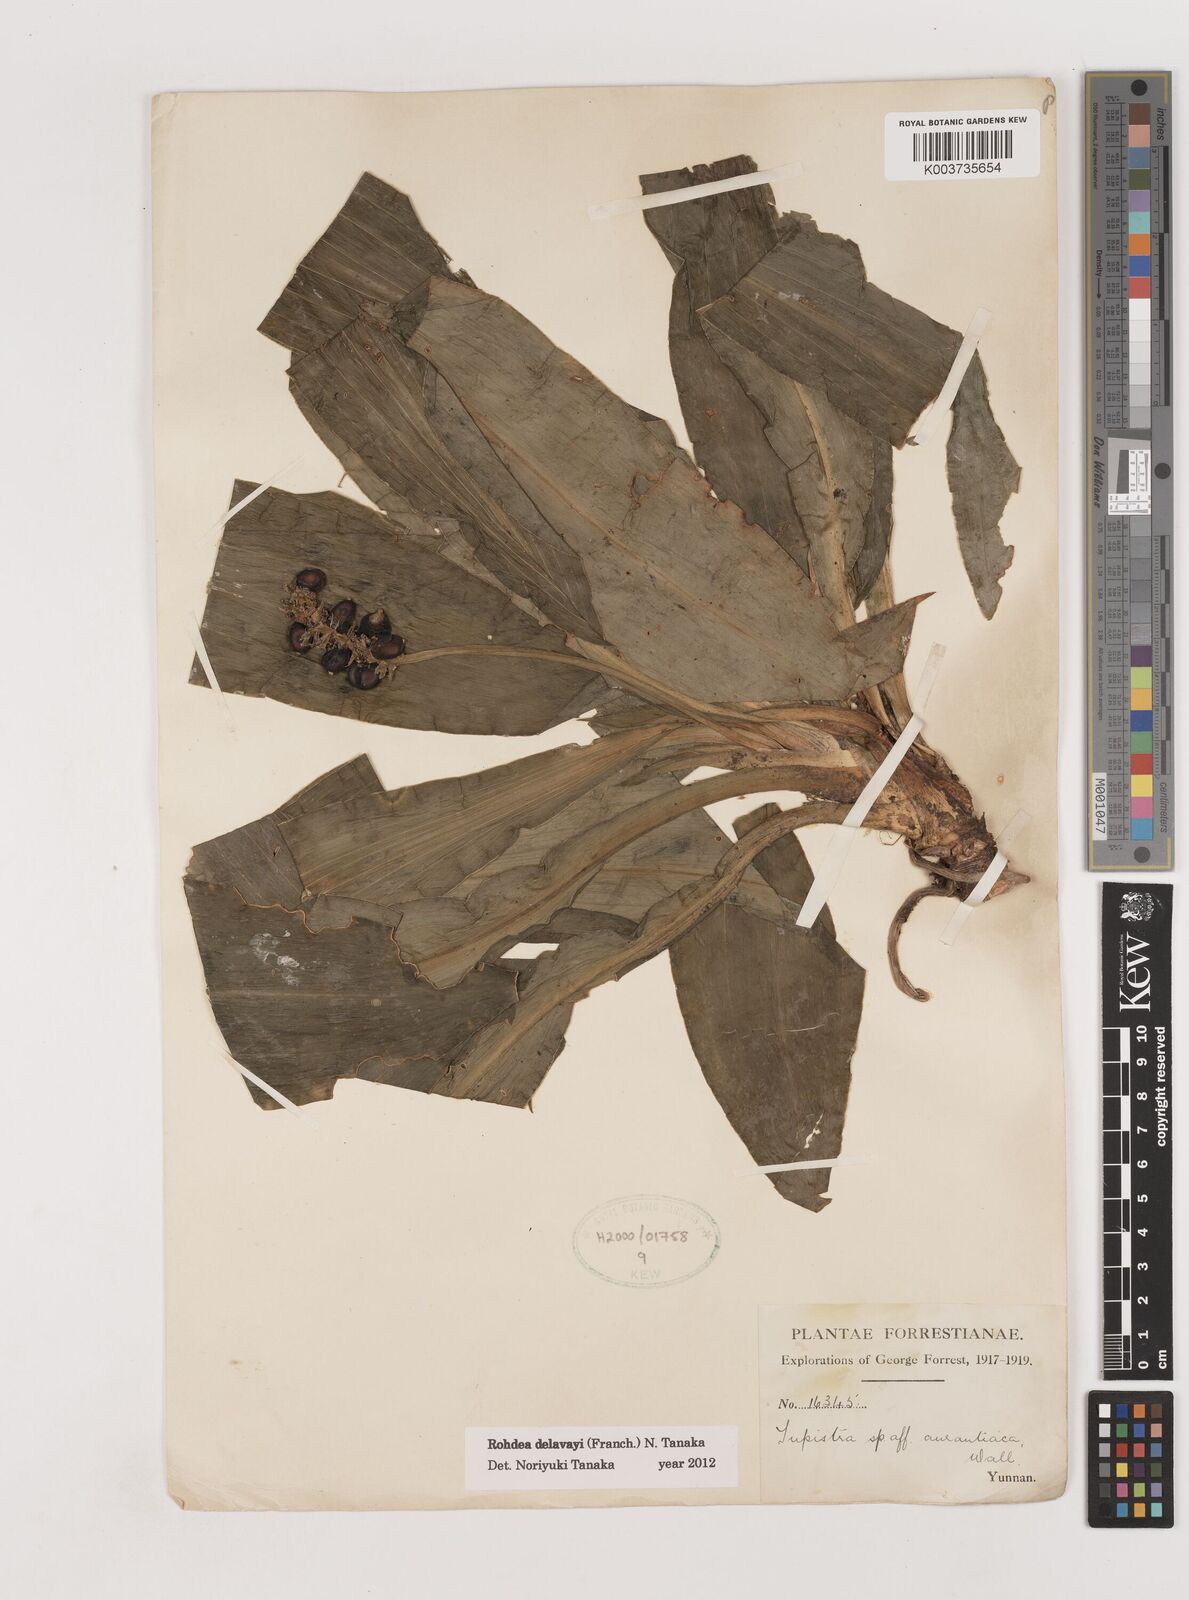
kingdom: Plantae
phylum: Tracheophyta
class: Liliopsida
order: Asparagales
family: Asparagaceae
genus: Rohdea
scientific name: Rohdea delavayi
